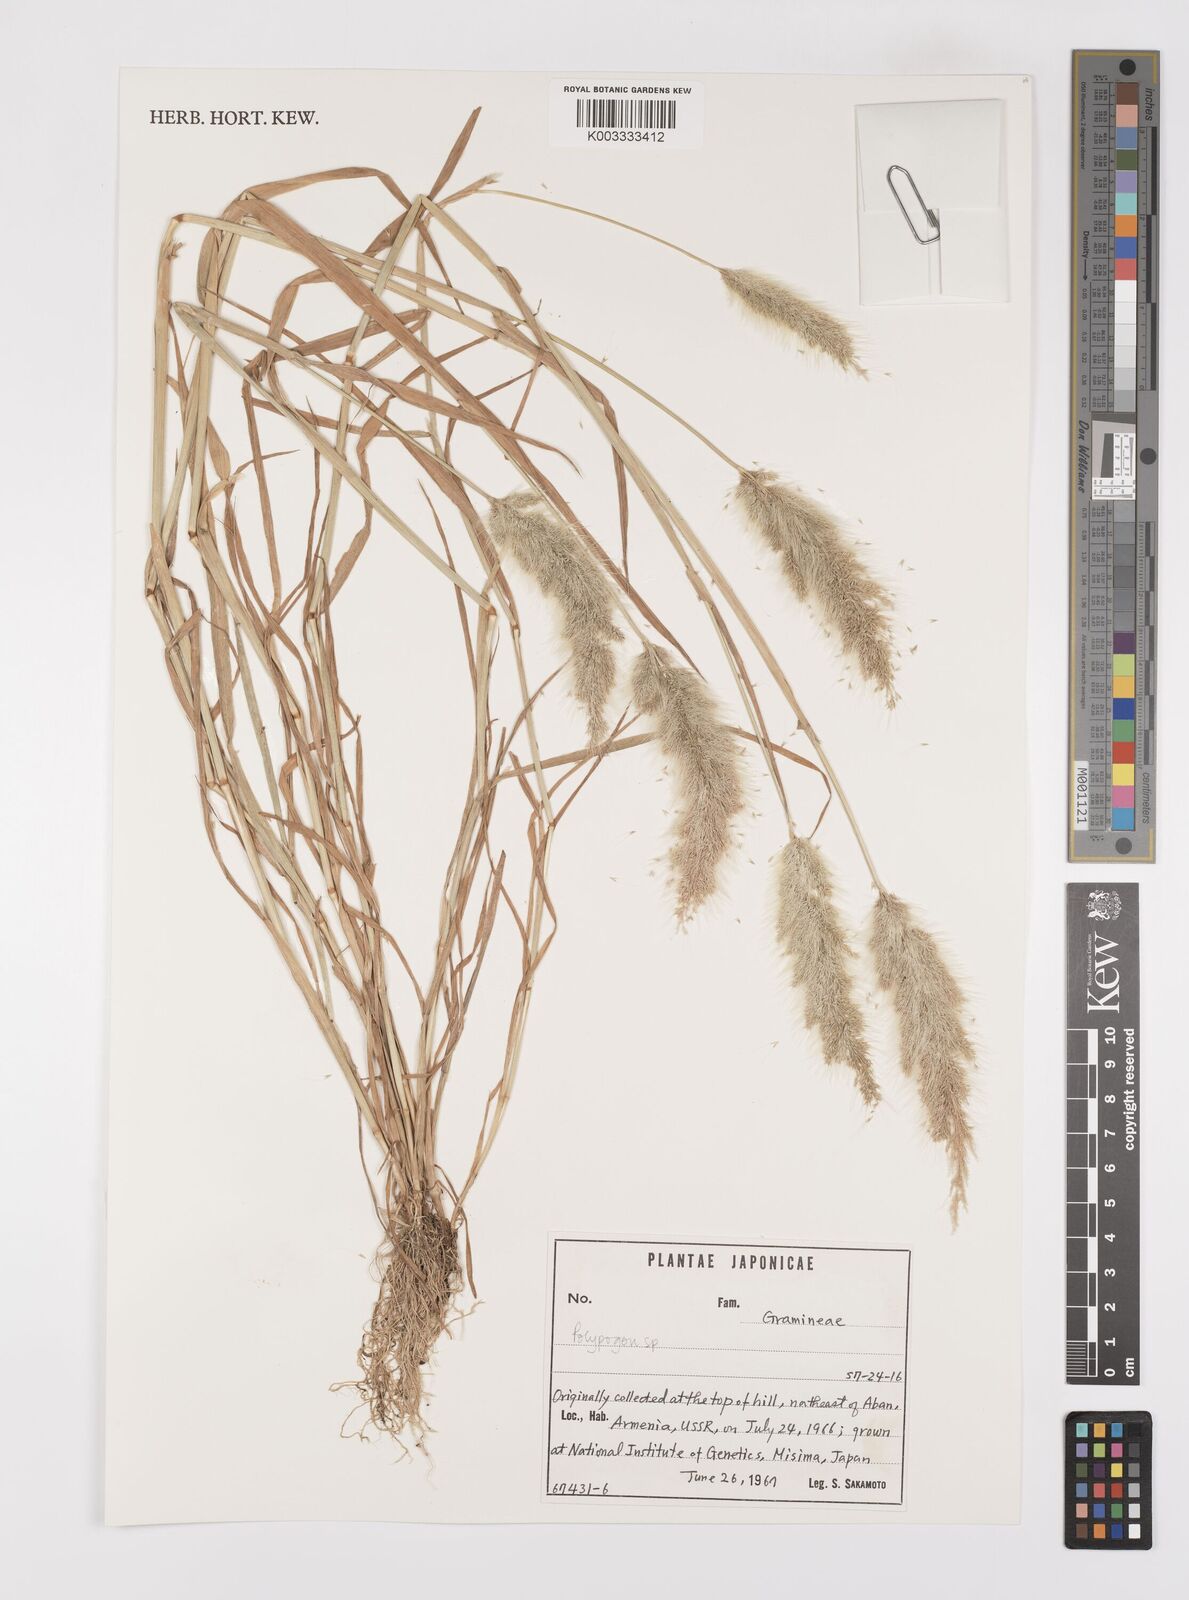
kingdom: Plantae
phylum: Tracheophyta
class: Liliopsida
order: Poales
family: Poaceae
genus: Polypogon
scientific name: Polypogon monspeliensis
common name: Annual rabbitsfoot grass
